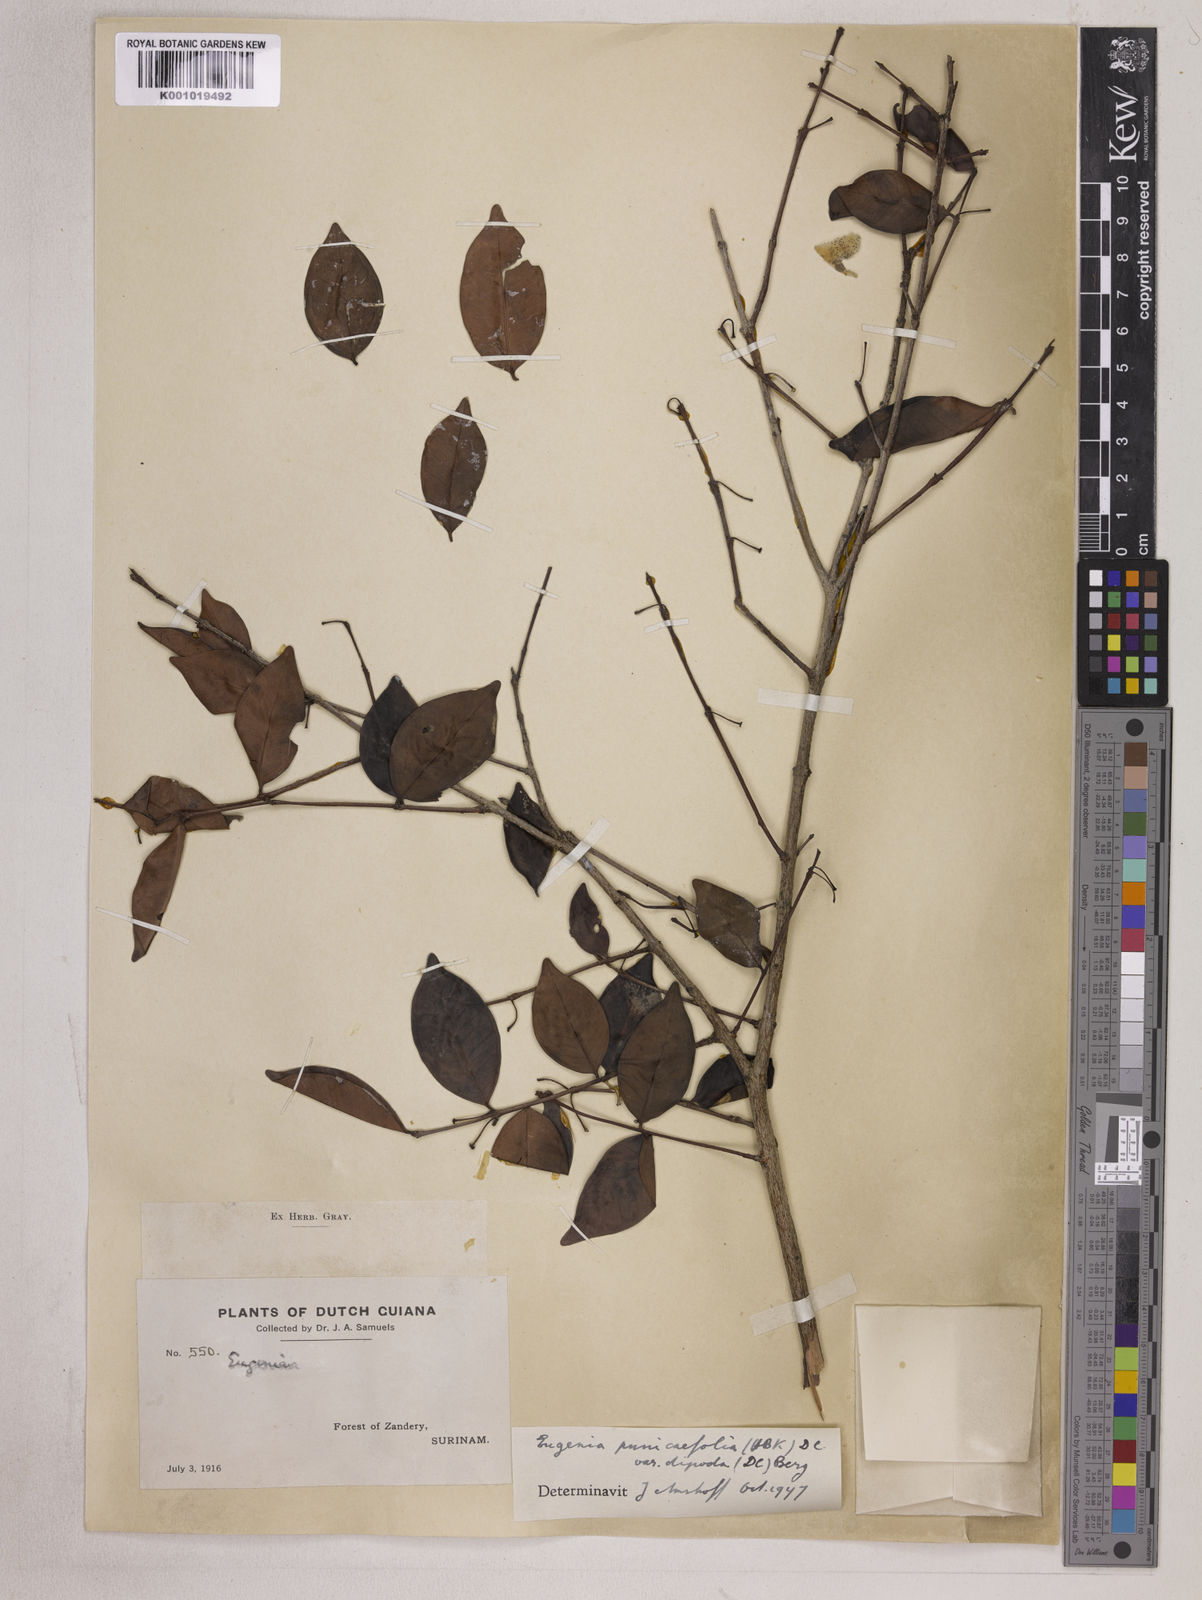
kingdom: Plantae
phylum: Tracheophyta
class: Magnoliopsida
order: Myrtales
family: Myrtaceae
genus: Eugenia
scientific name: Eugenia punicifolia
